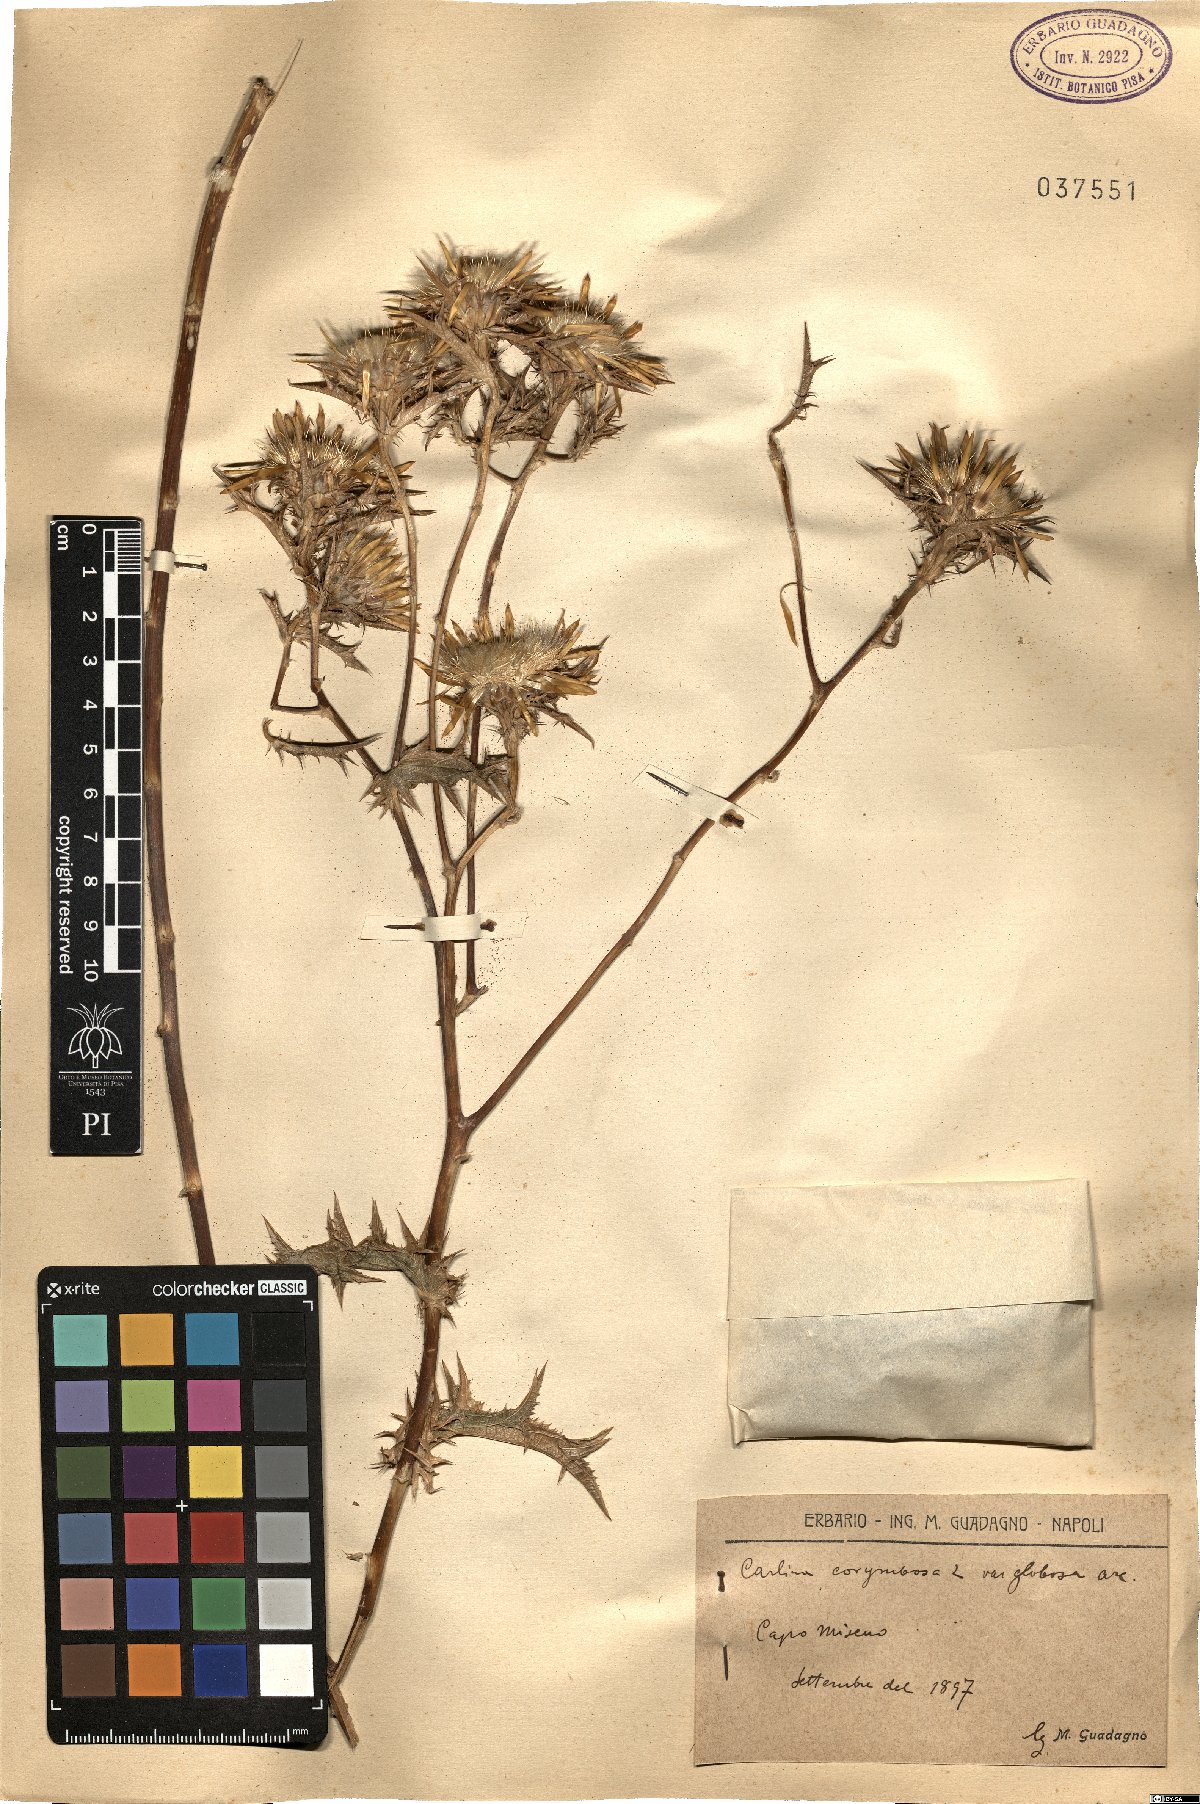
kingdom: Plantae
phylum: Tracheophyta
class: Magnoliopsida
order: Asterales
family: Asteraceae
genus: Carlina
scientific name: Carlina corymbosa
